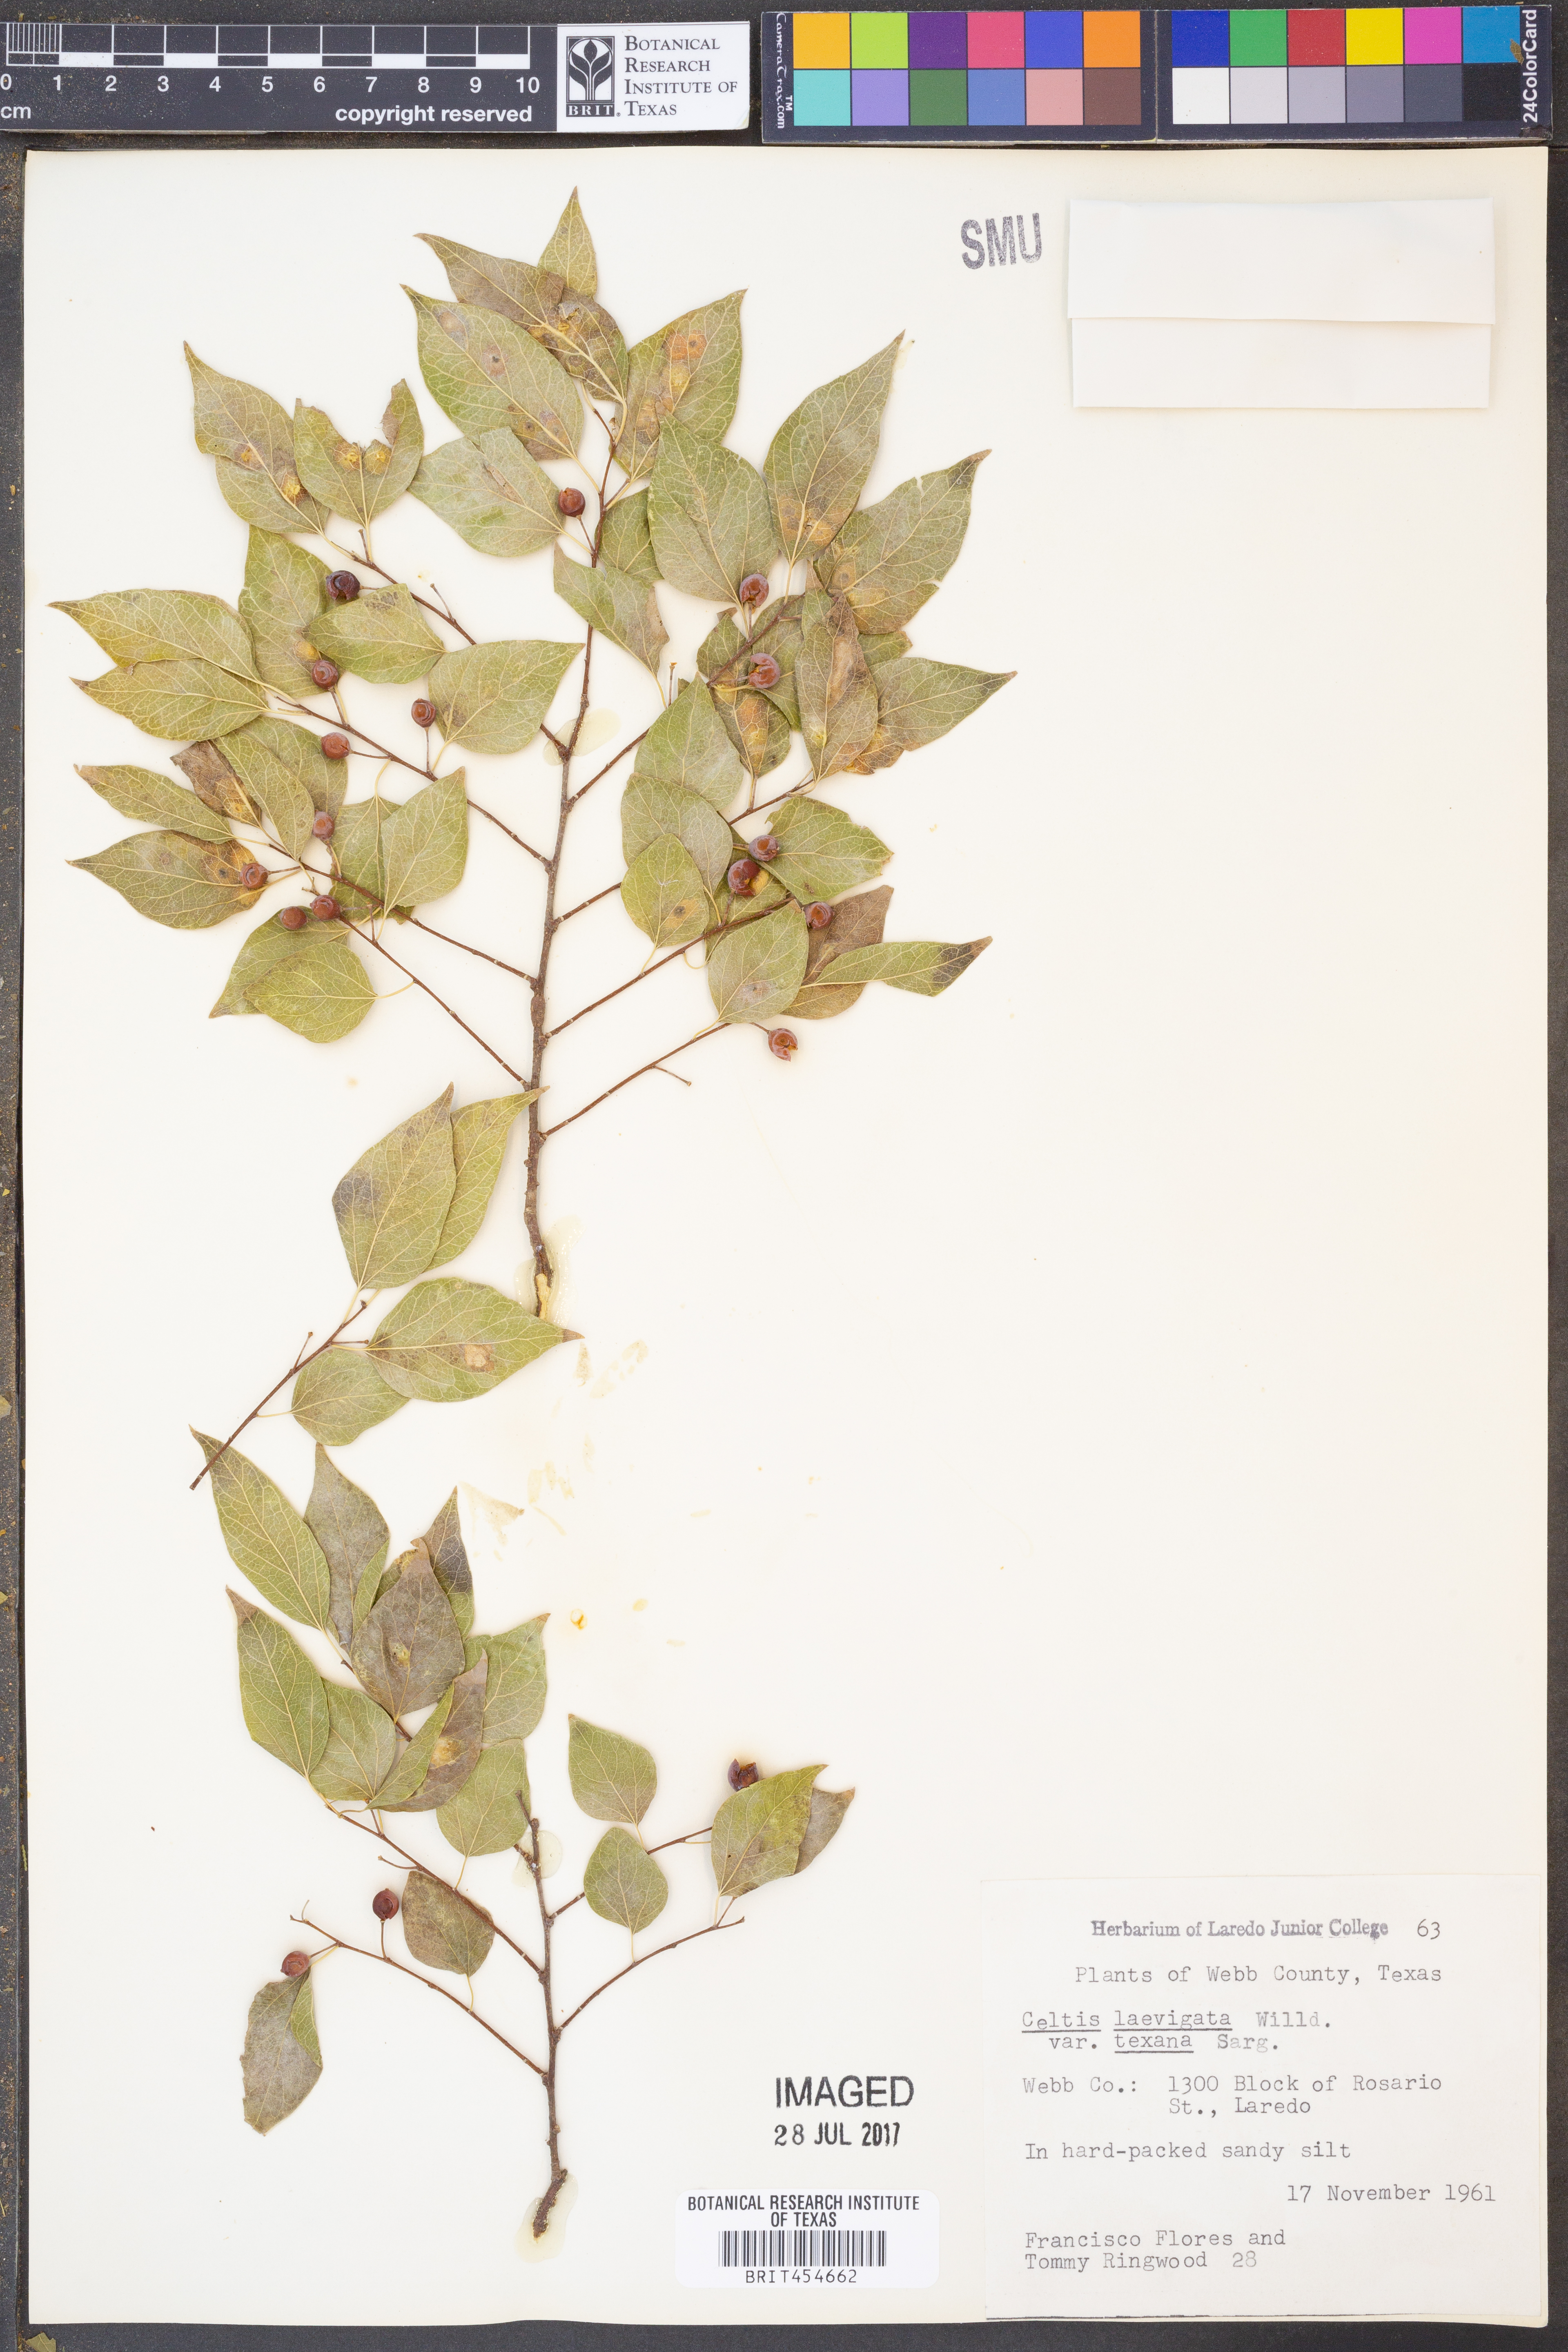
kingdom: Plantae
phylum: Tracheophyta
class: Magnoliopsida
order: Rosales
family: Cannabaceae
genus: Celtis
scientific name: Celtis laevigata
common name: Sugarberry
